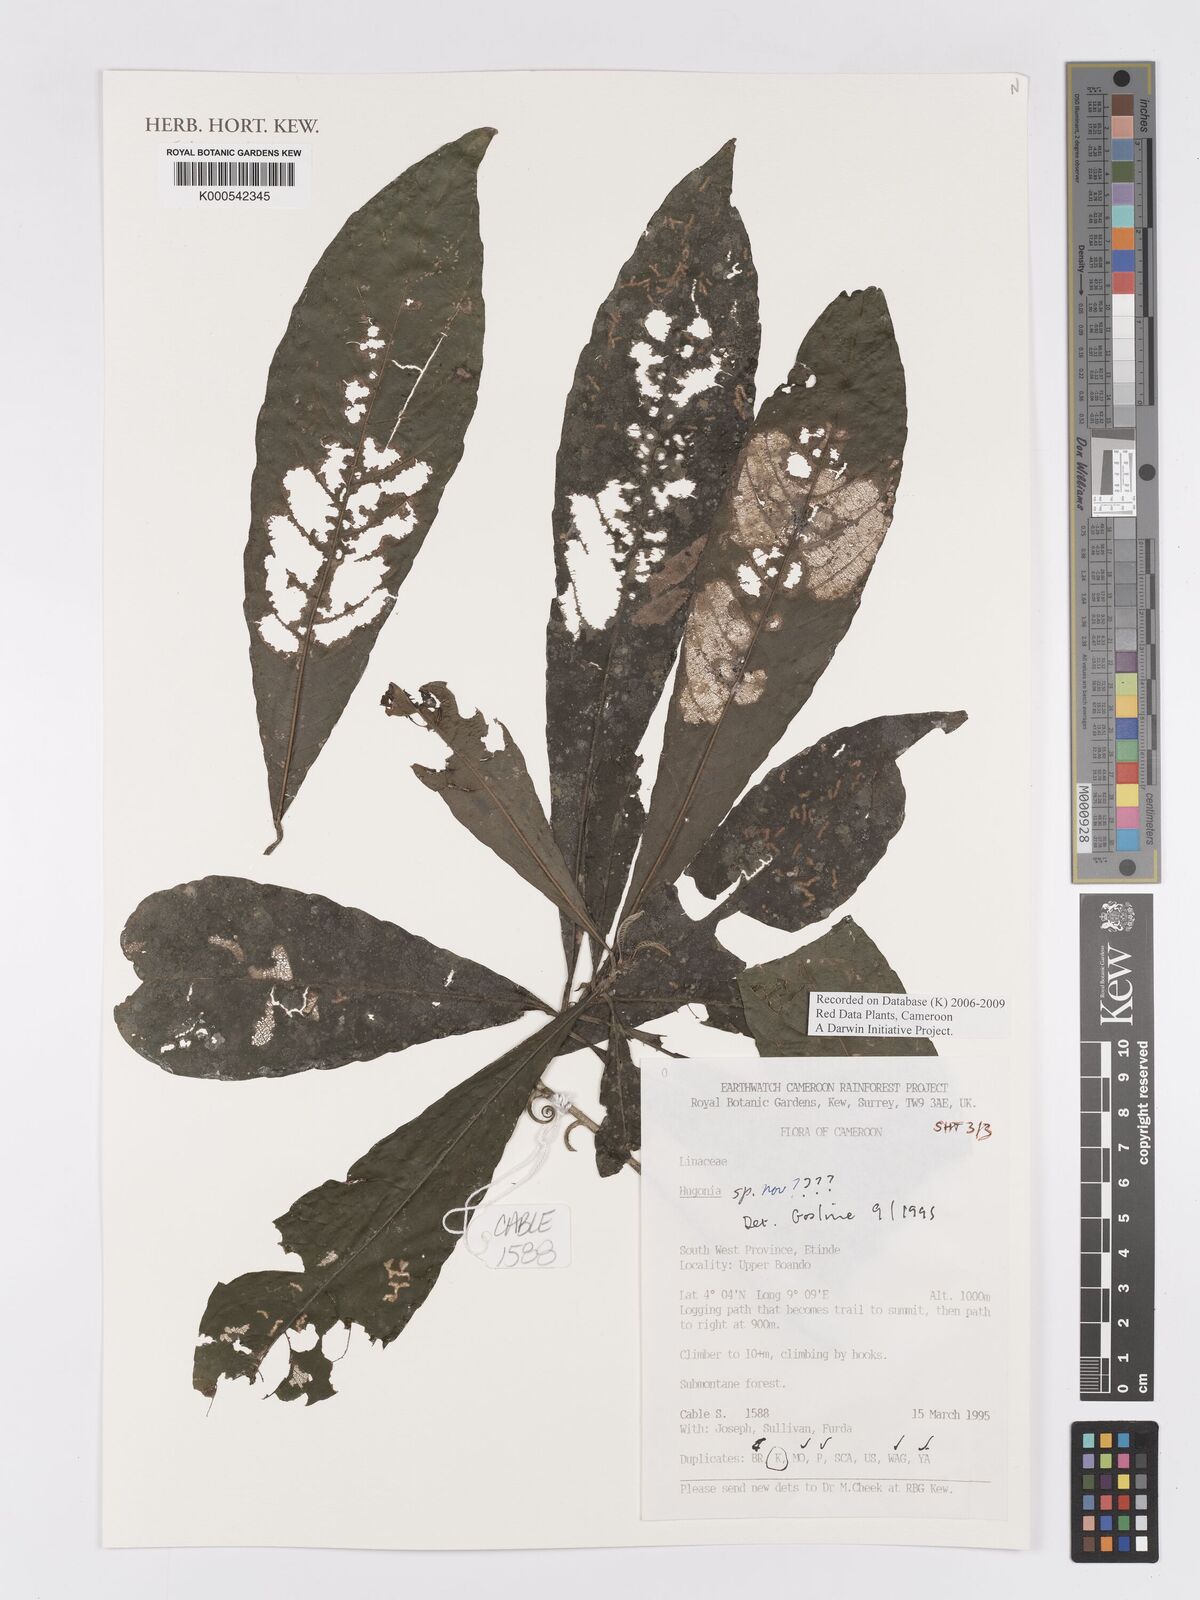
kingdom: Plantae
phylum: Tracheophyta
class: Magnoliopsida
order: Malpighiales
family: Linaceae
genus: Hugonia
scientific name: Hugonia
